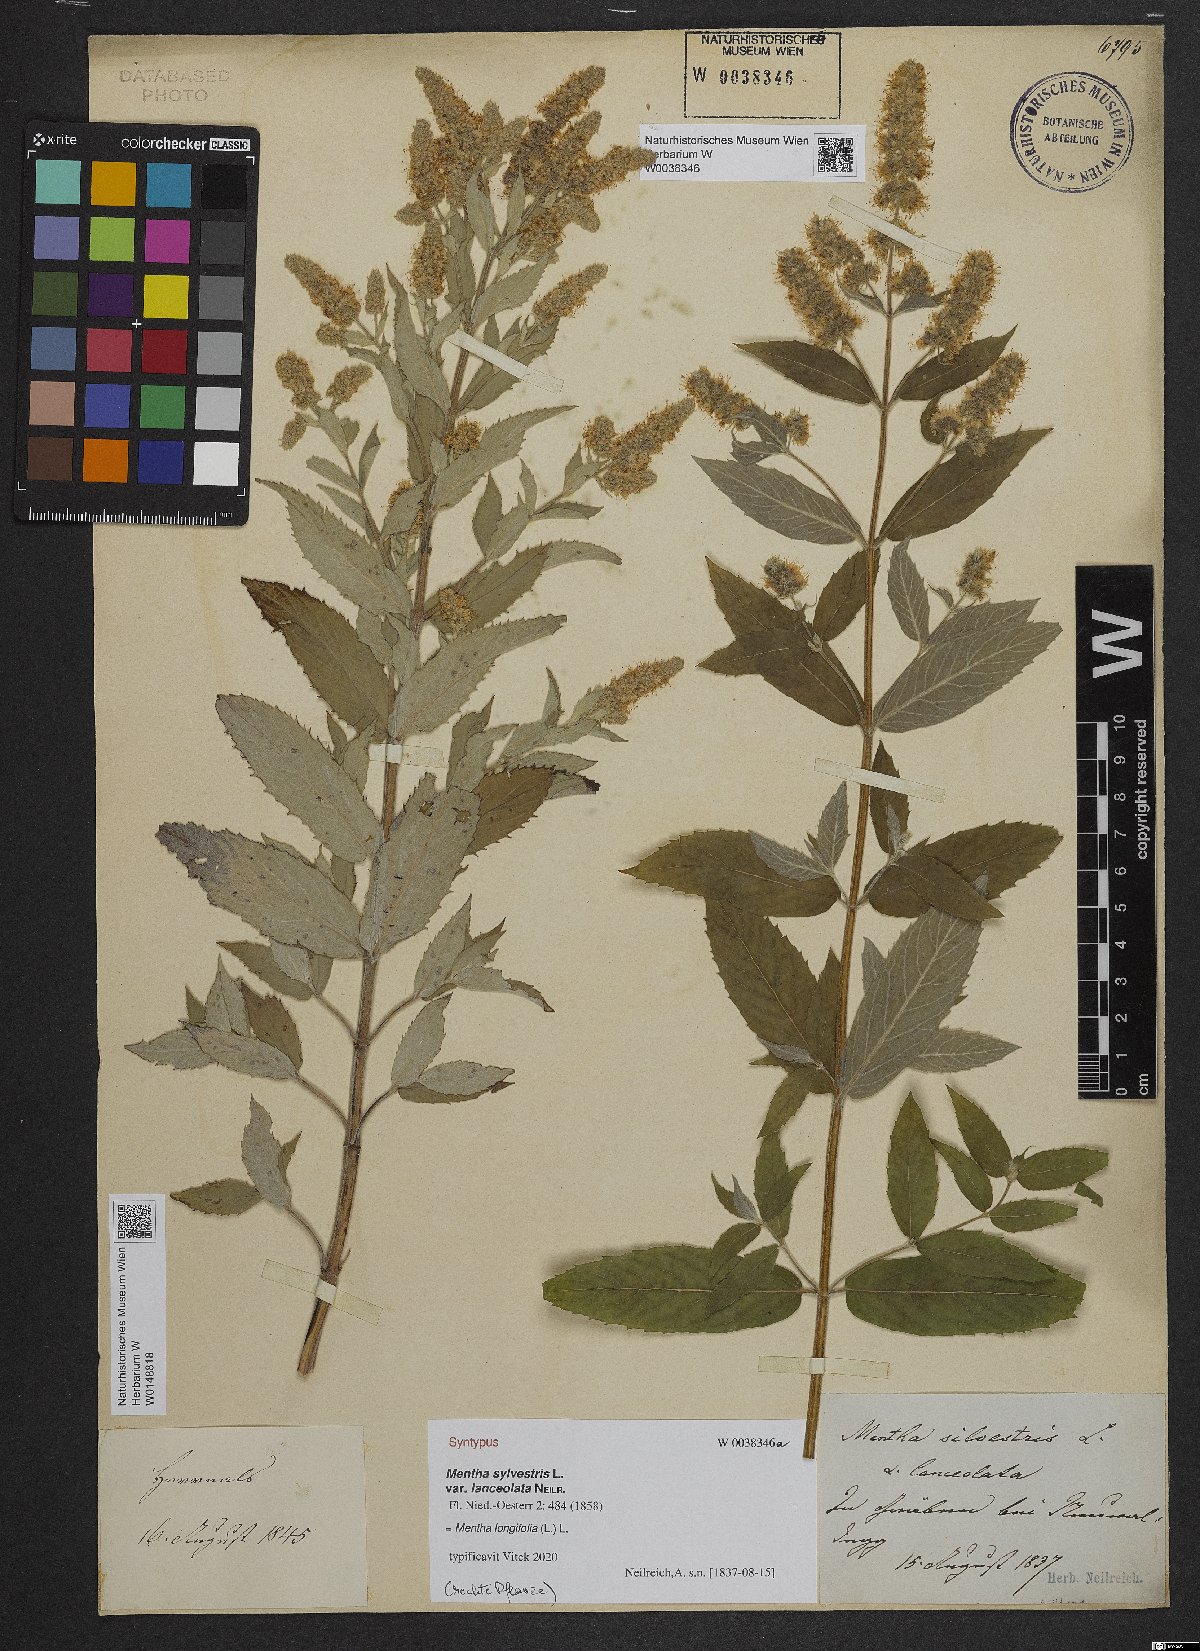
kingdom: Plantae
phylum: Tracheophyta
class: Magnoliopsida
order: Lamiales
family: Lamiaceae
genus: Mentha
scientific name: Mentha
